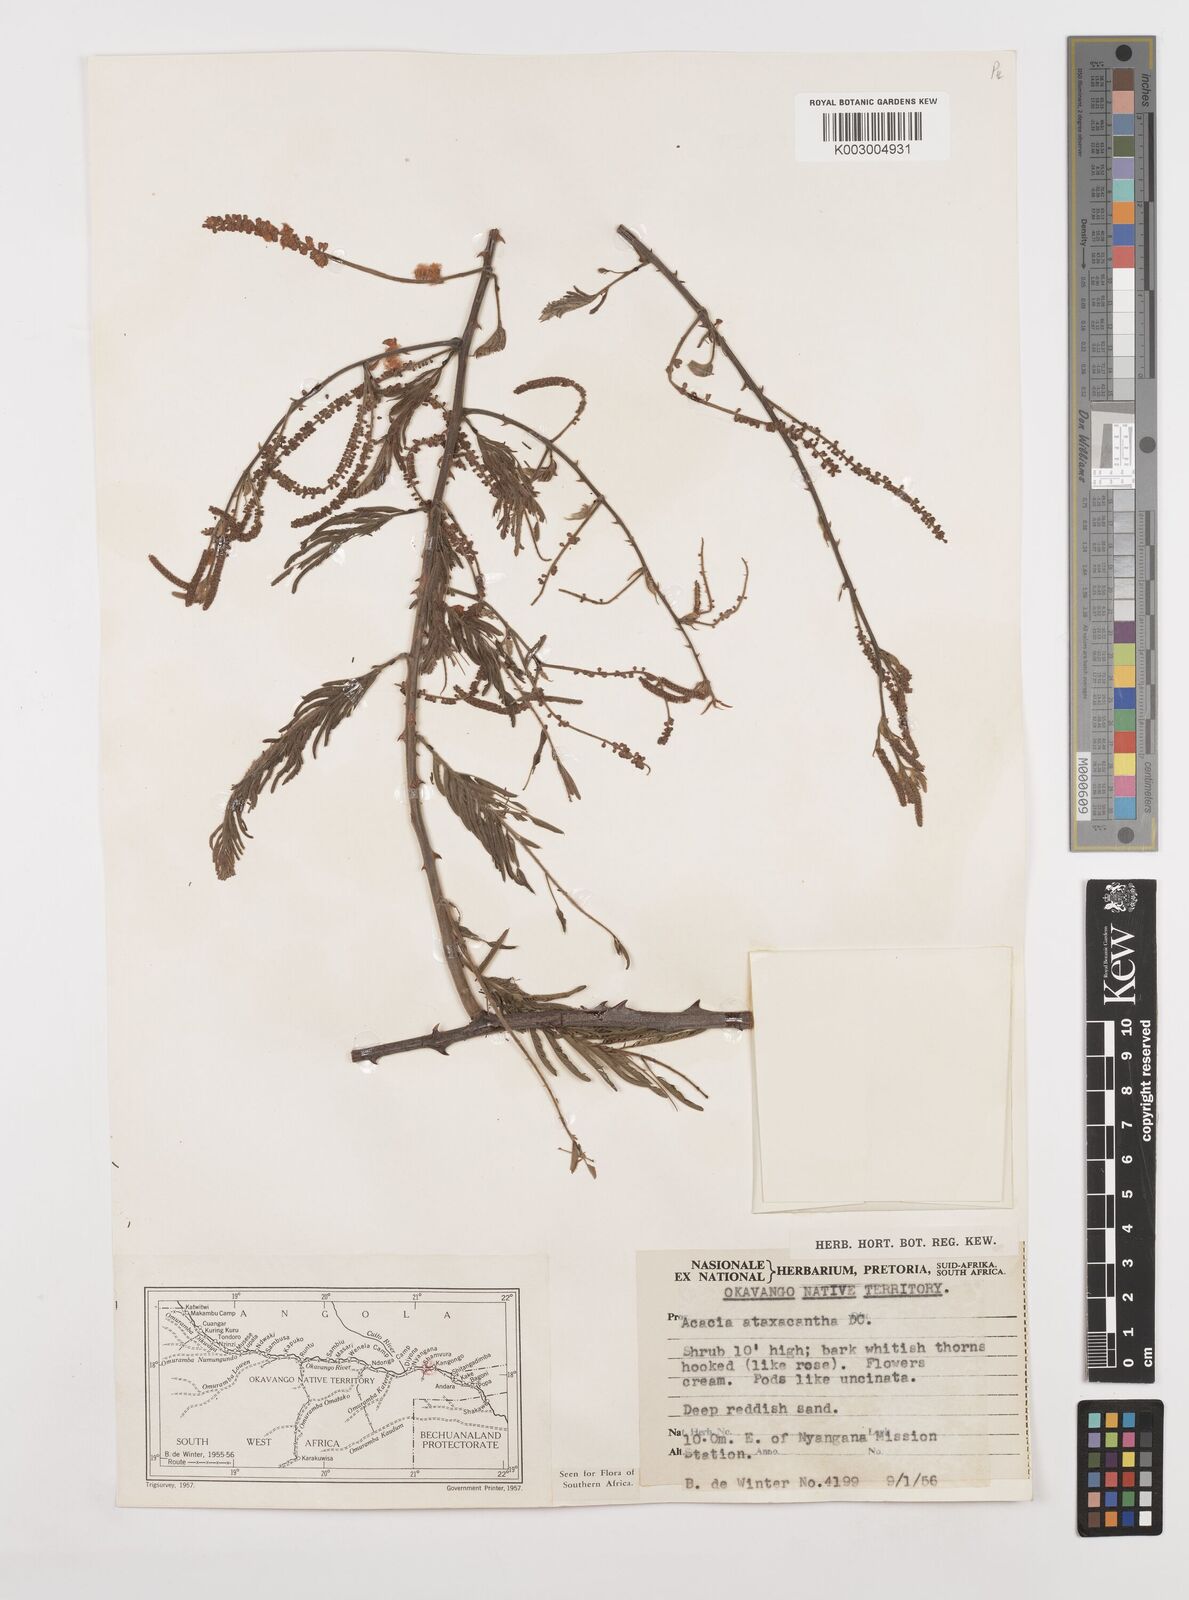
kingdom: Plantae
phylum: Tracheophyta
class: Magnoliopsida
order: Fabales
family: Fabaceae
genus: Senegalia
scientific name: Senegalia ataxacantha
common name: Flame acacia
